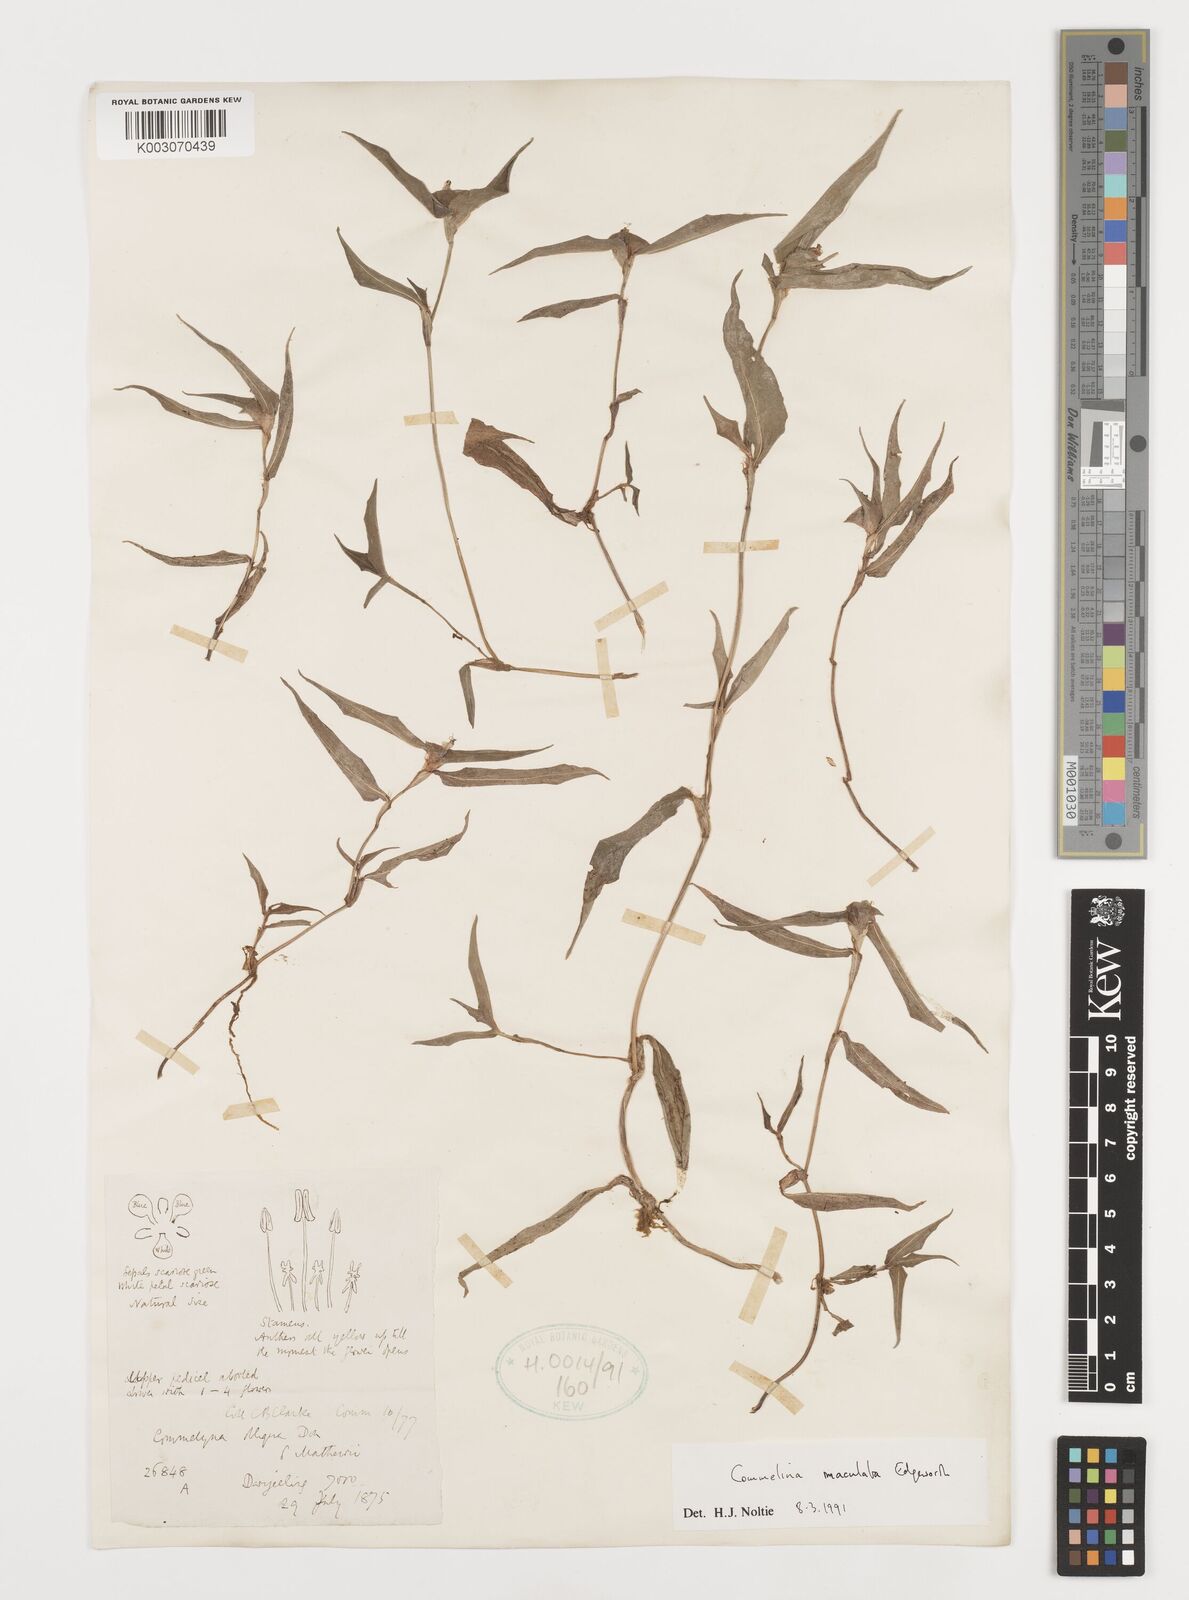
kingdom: Plantae
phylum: Tracheophyta
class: Liliopsida
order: Commelinales
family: Commelinaceae
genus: Commelina
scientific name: Commelina maculata
